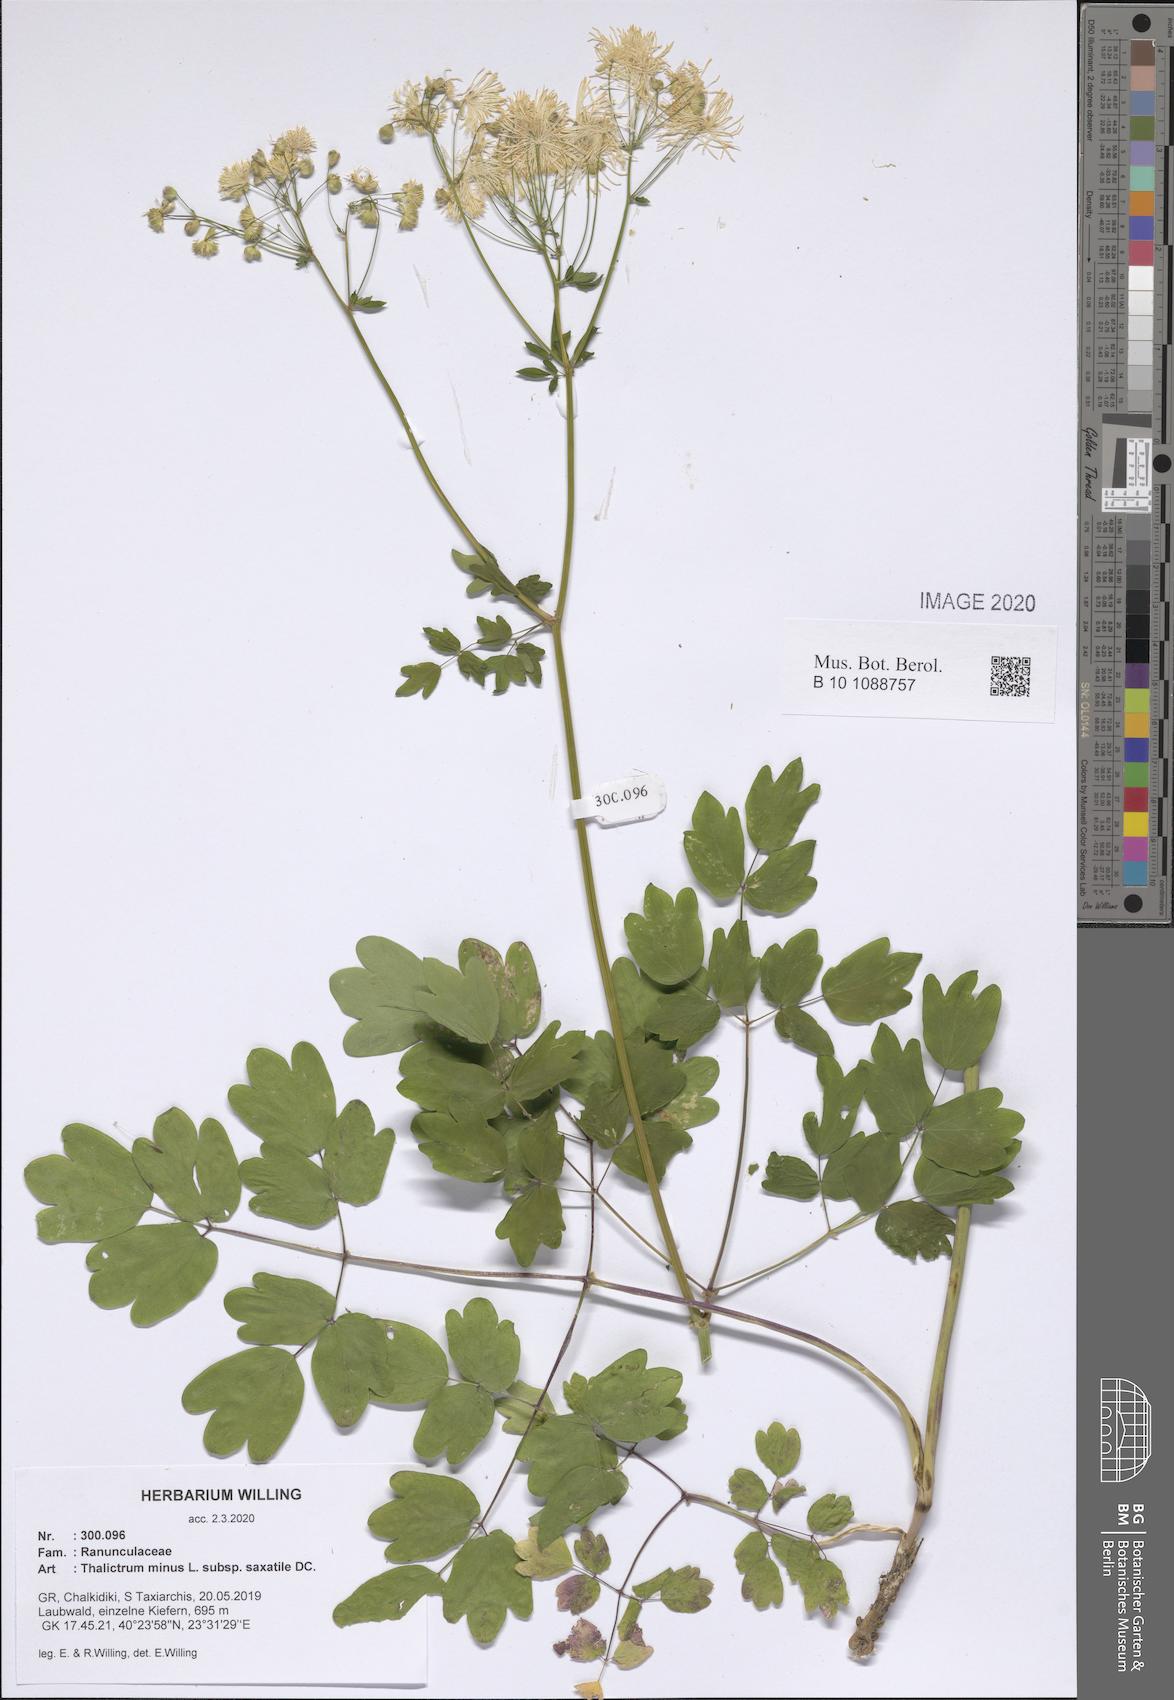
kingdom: Plantae
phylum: Tracheophyta
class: Magnoliopsida
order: Ranunculales
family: Ranunculaceae
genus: Thalictrum
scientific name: Thalictrum minus
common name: Lesser meadow-rue
